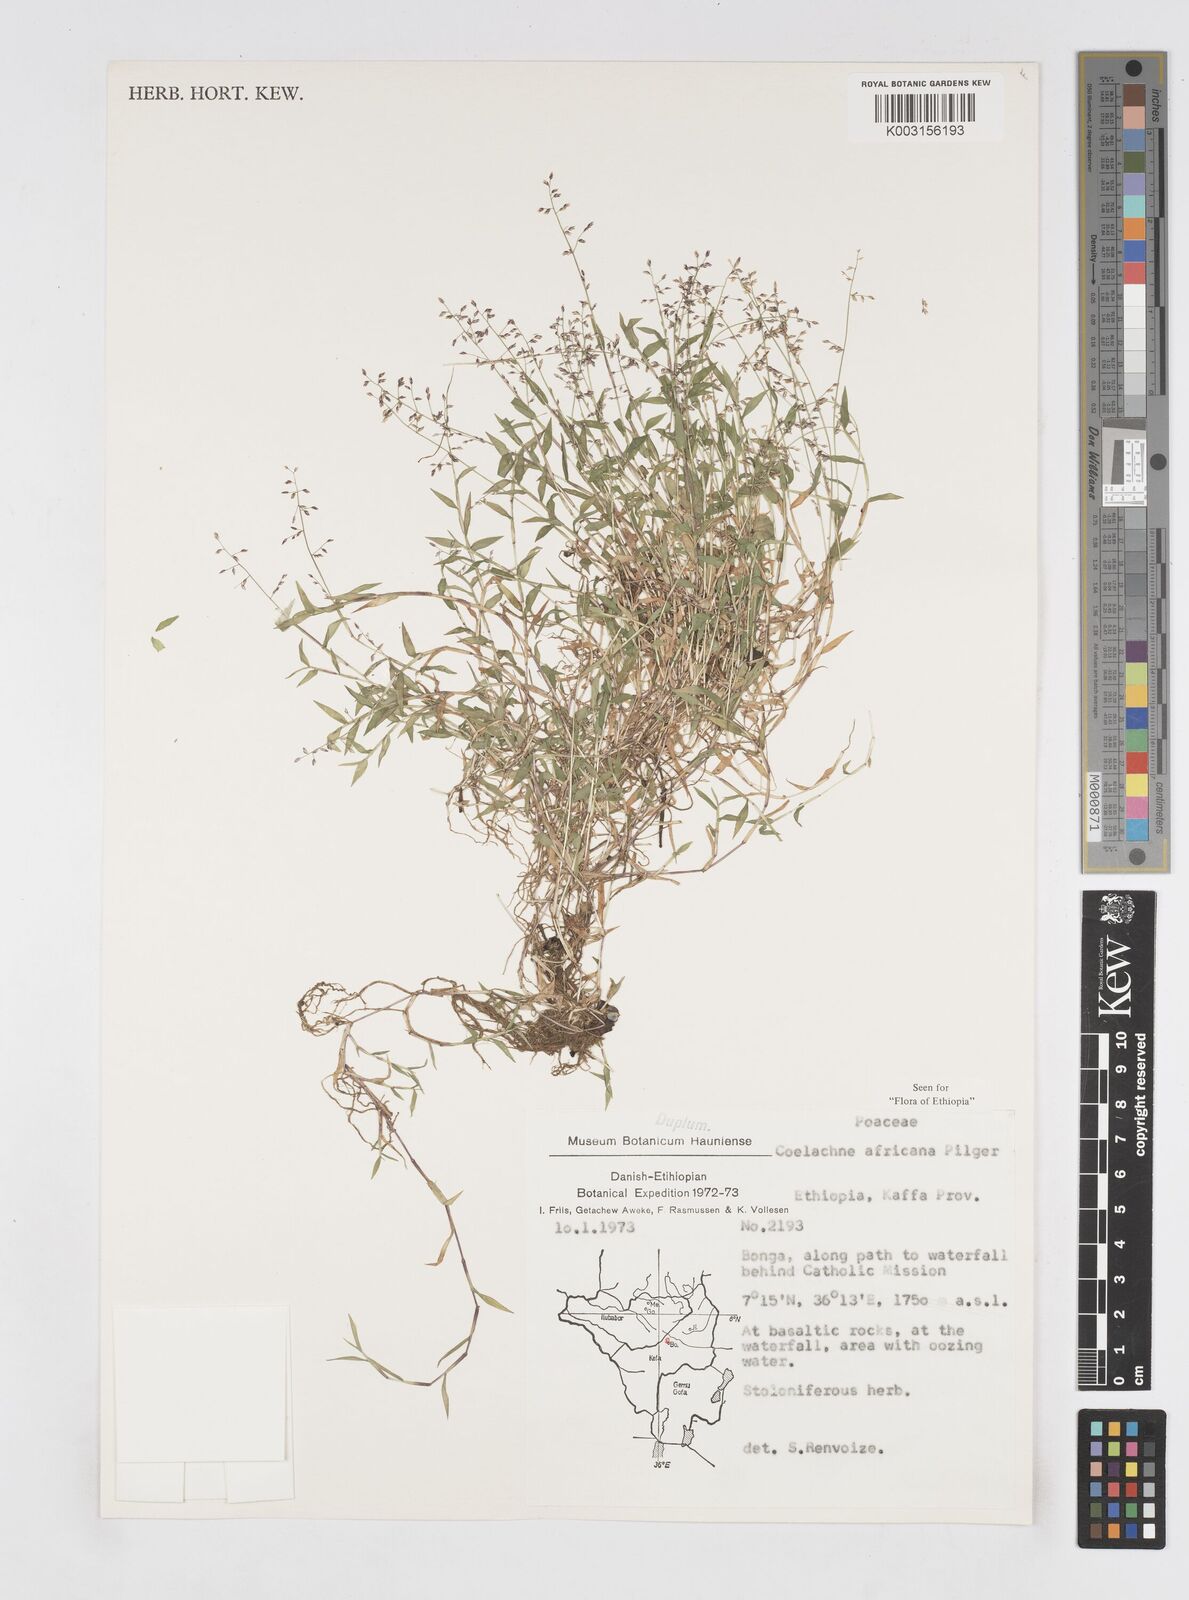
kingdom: Plantae
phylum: Tracheophyta
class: Liliopsida
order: Poales
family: Poaceae
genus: Coelachne
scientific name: Coelachne africana
